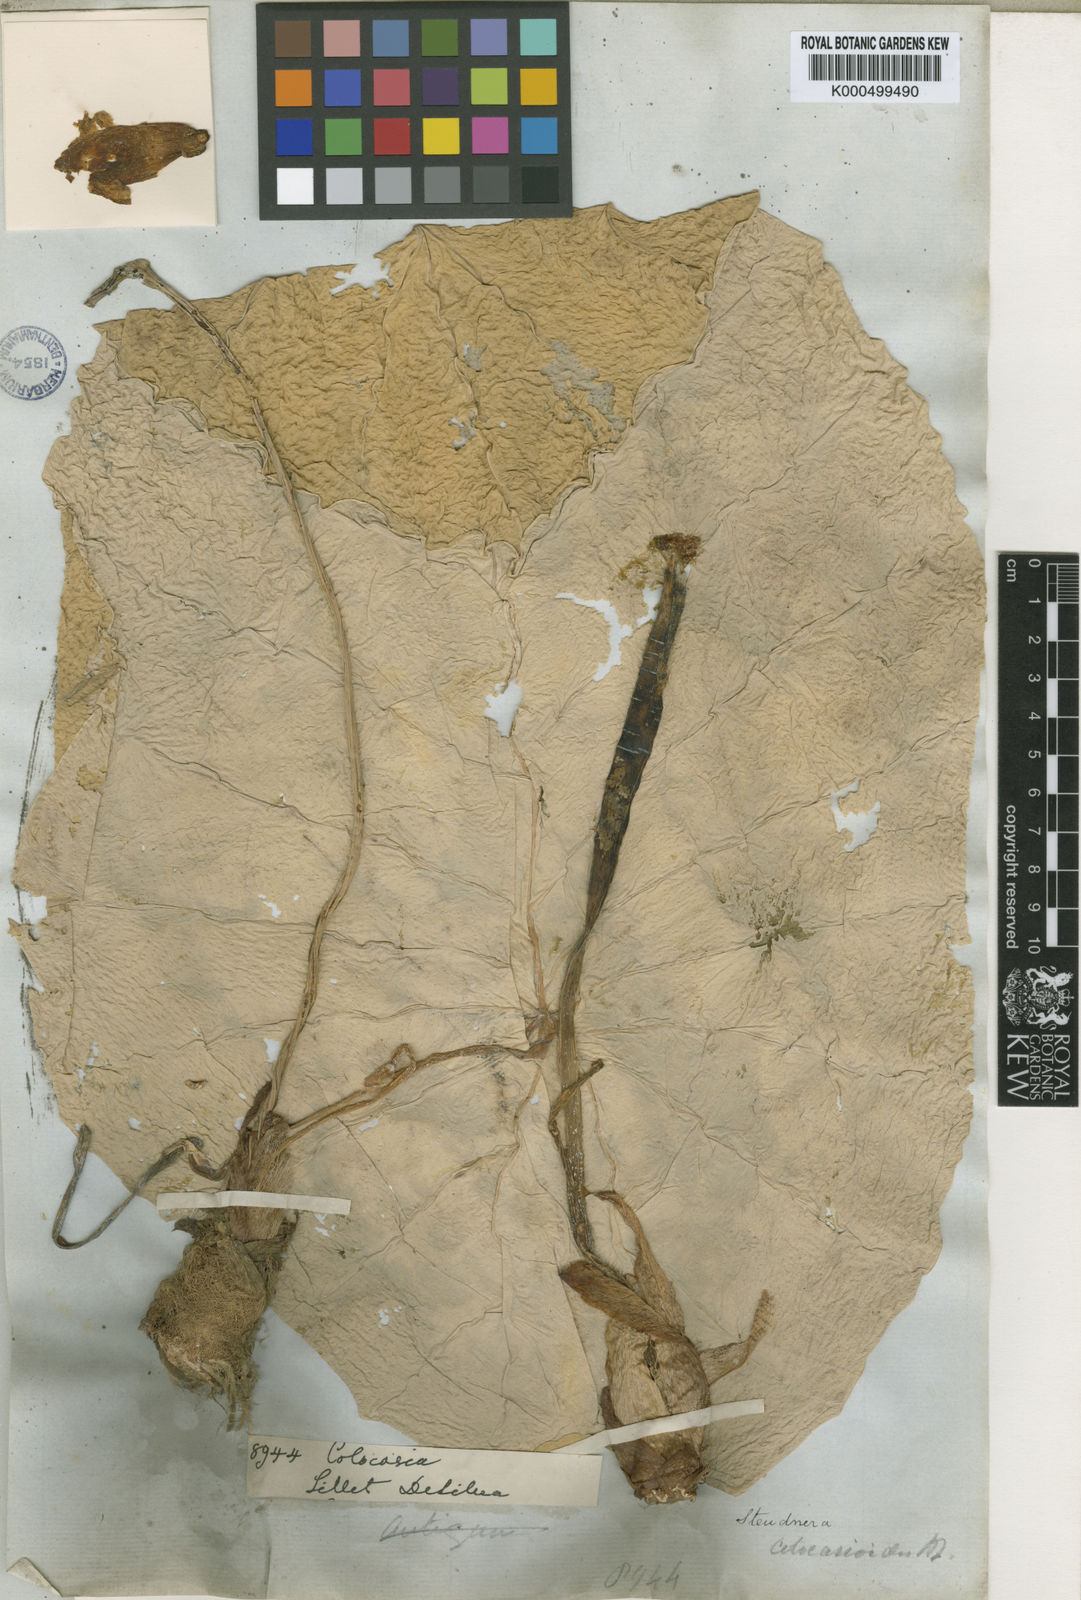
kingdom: Plantae
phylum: Tracheophyta
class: Liliopsida
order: Alismatales
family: Araceae
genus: Steudnera
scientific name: Steudnera colocasioides
